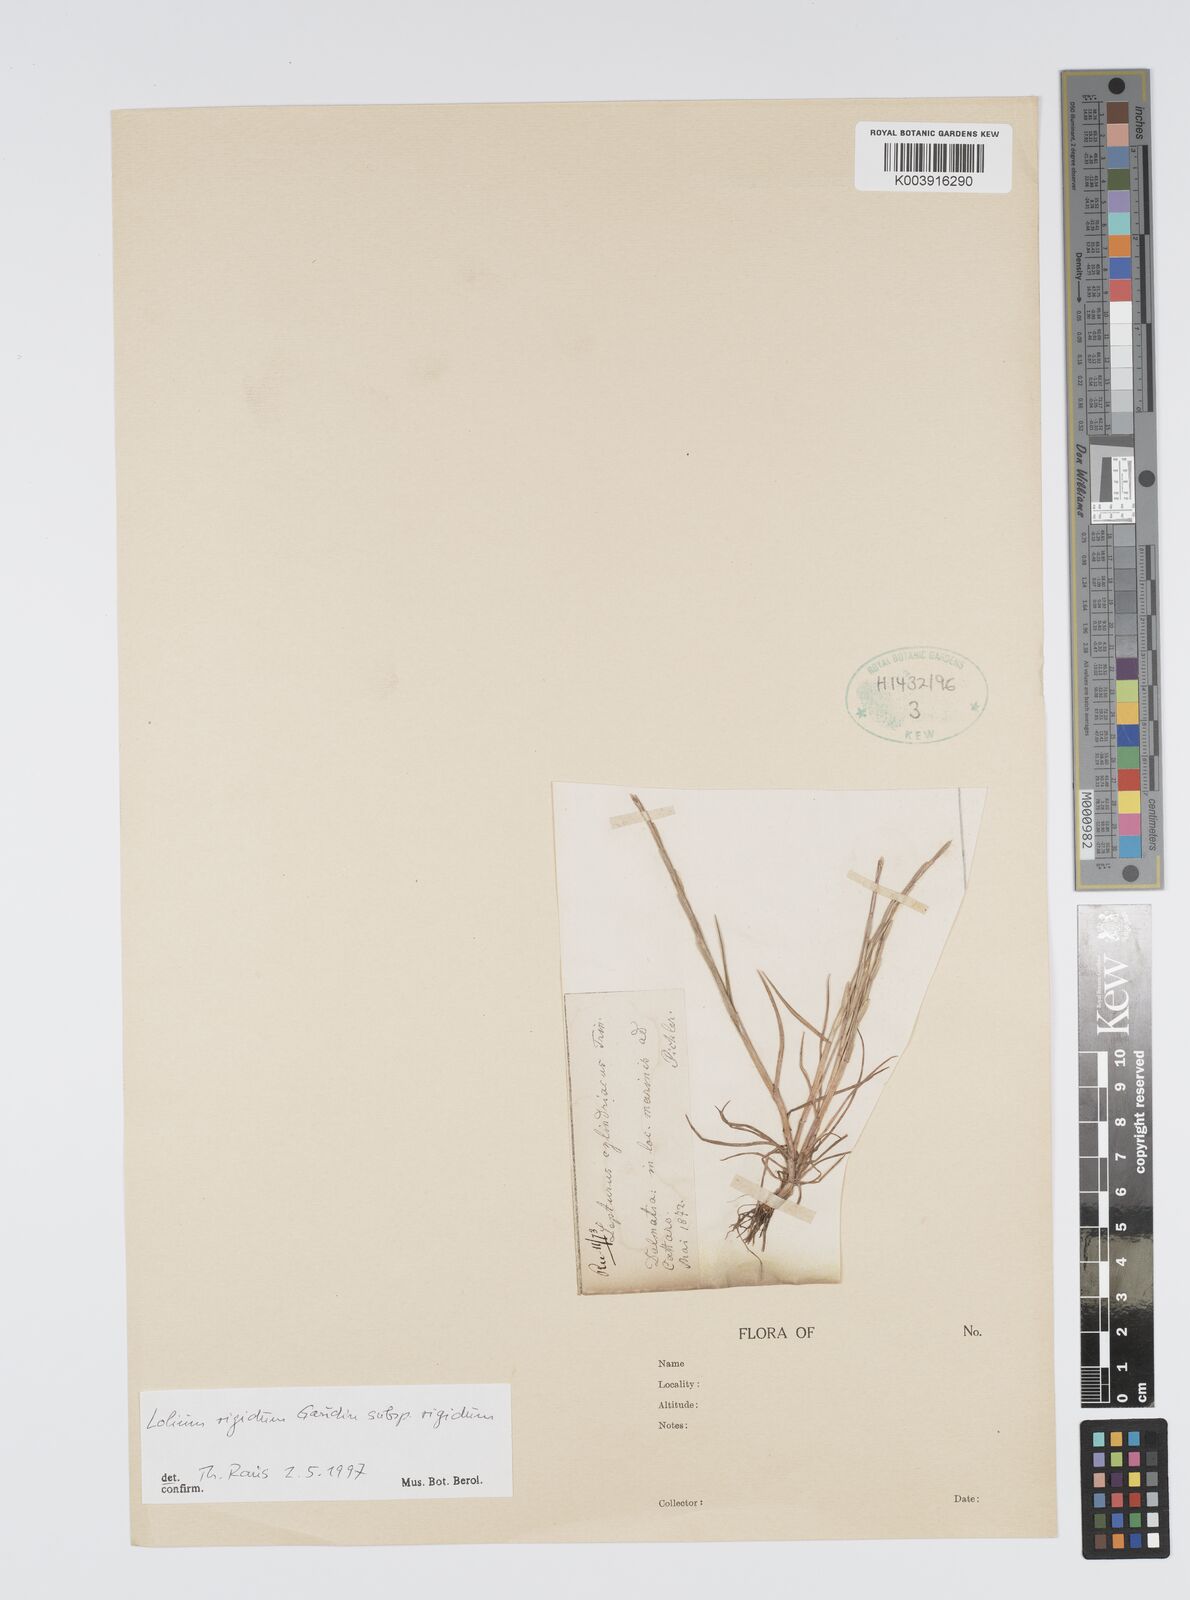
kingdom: Plantae
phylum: Tracheophyta
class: Liliopsida
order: Poales
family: Poaceae
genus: Lolium
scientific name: Lolium rigidum
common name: Wimmera ryegrass
